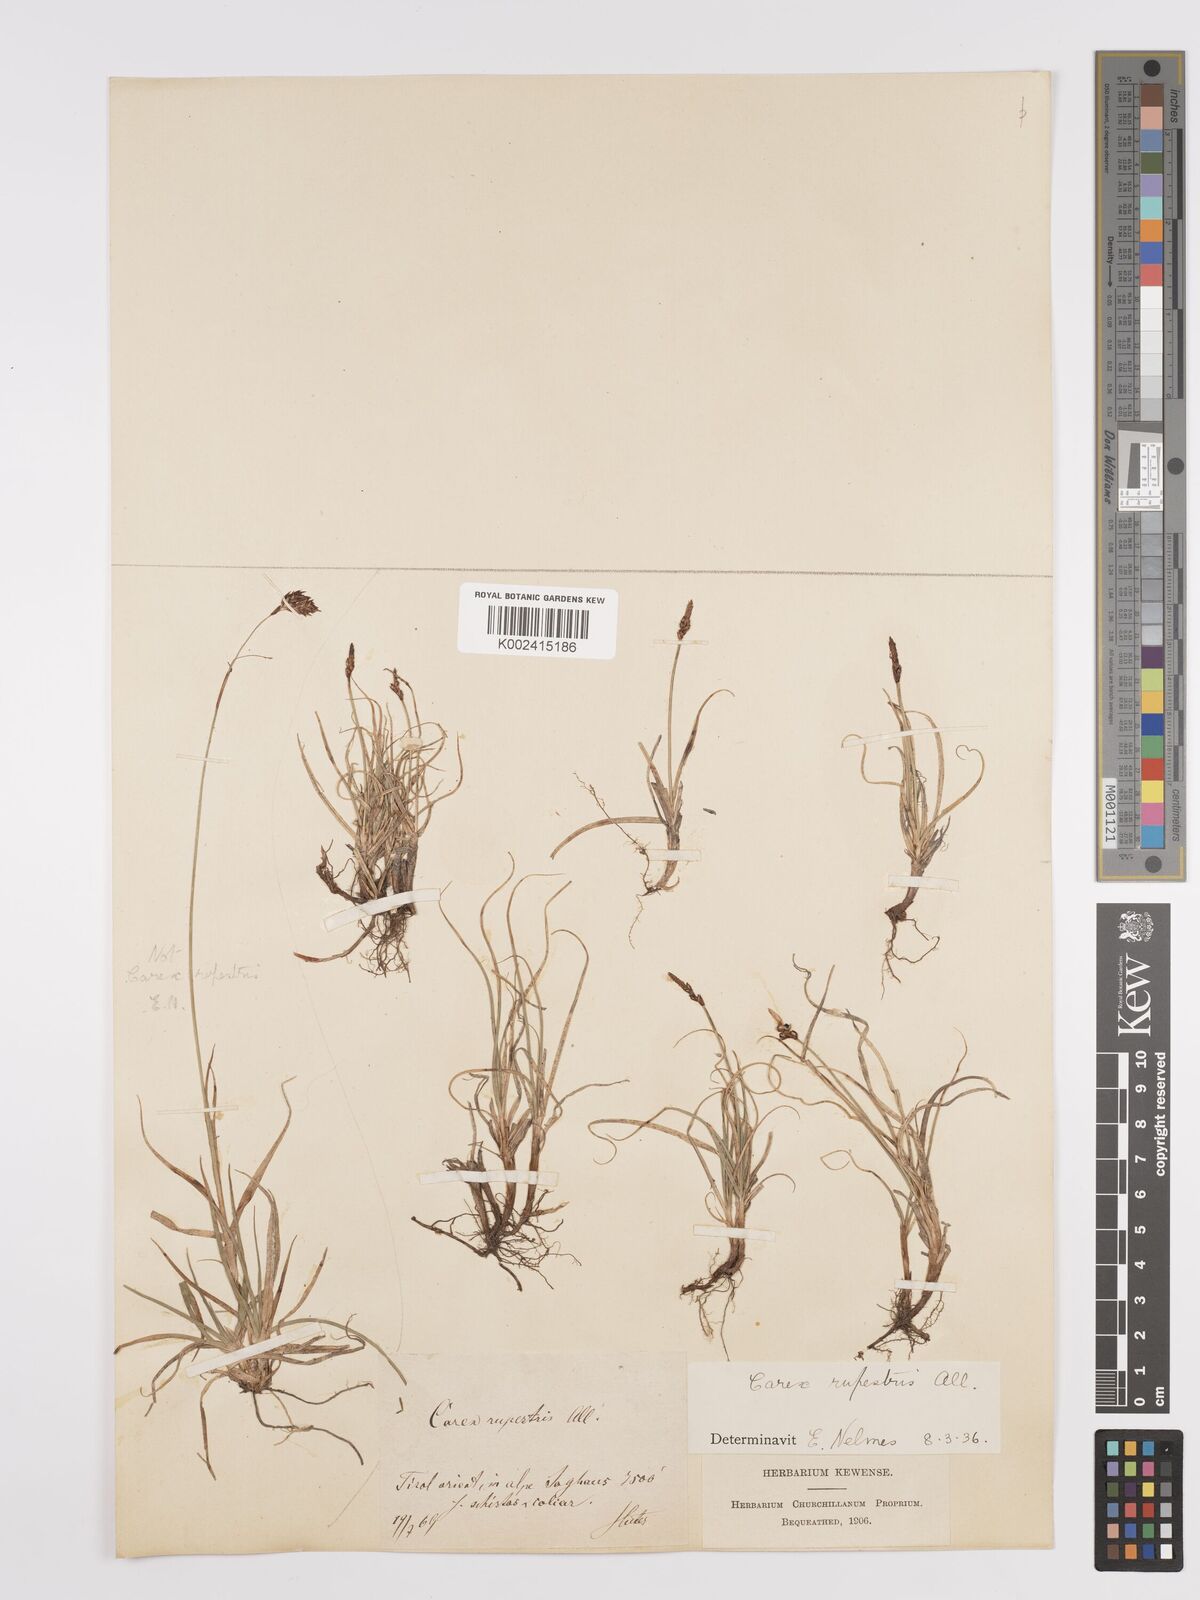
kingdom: Plantae
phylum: Tracheophyta
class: Liliopsida
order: Poales
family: Cyperaceae
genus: Carex
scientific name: Carex rupestris
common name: Rock sedge
